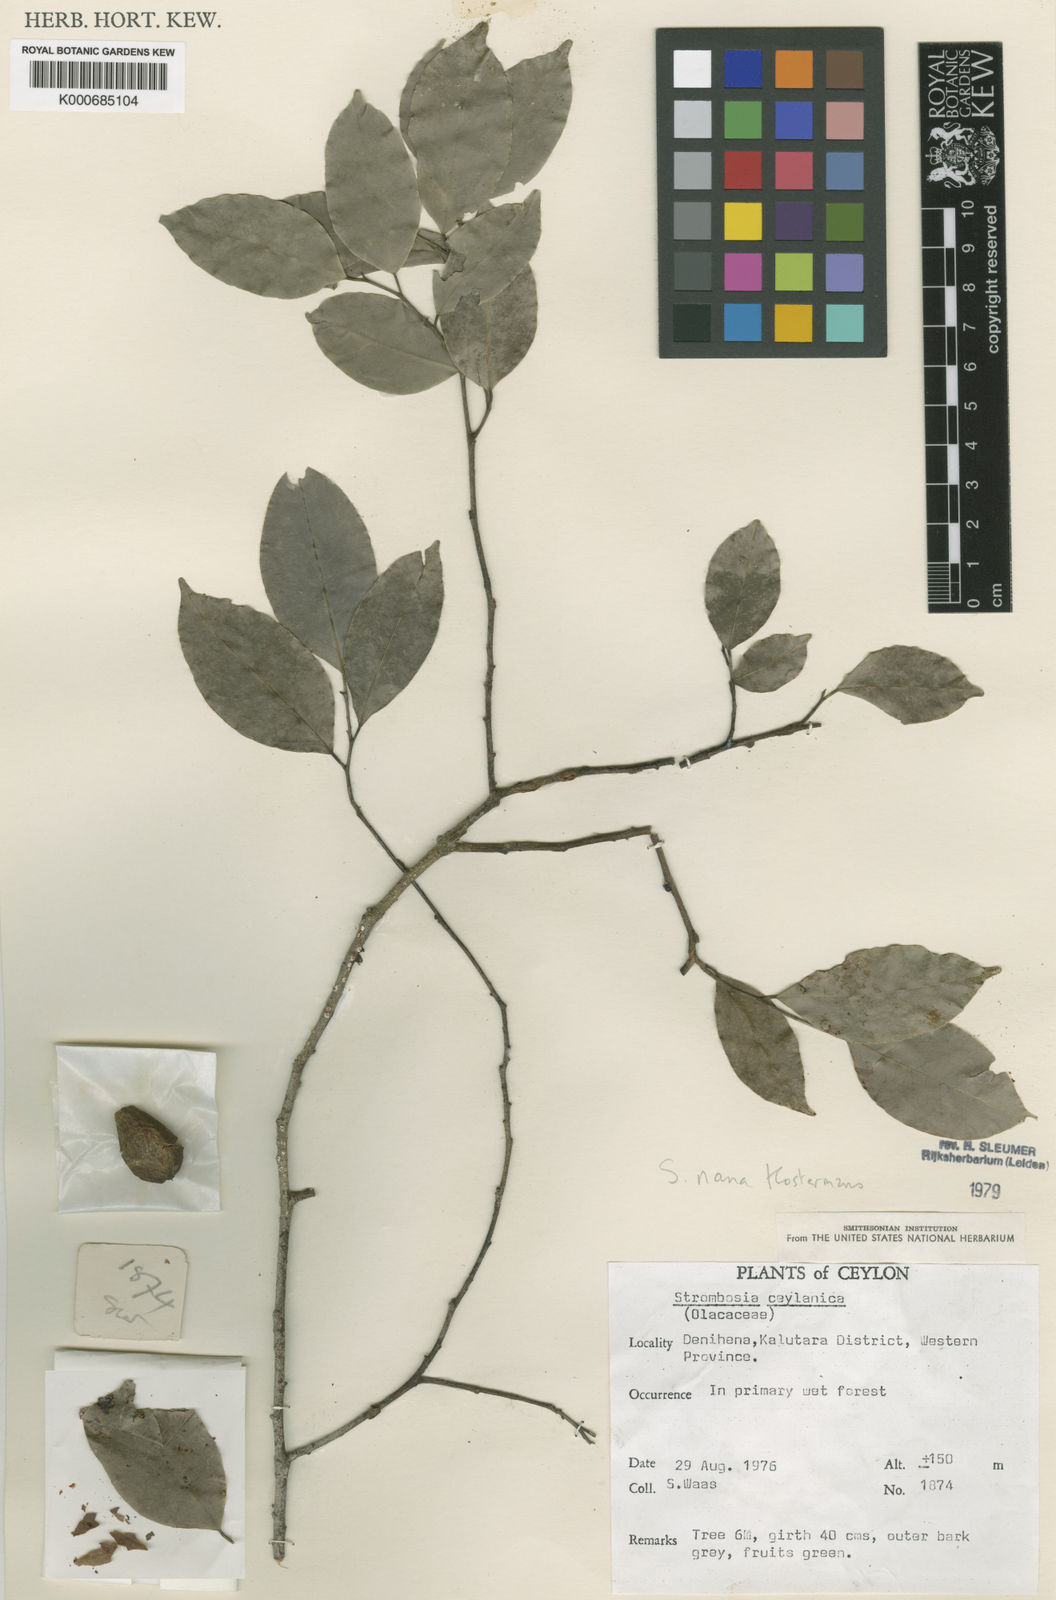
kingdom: Plantae
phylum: Tracheophyta
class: Magnoliopsida
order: Santalales
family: Strombosiaceae
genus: Strombosia
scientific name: Strombosia ceylanica
